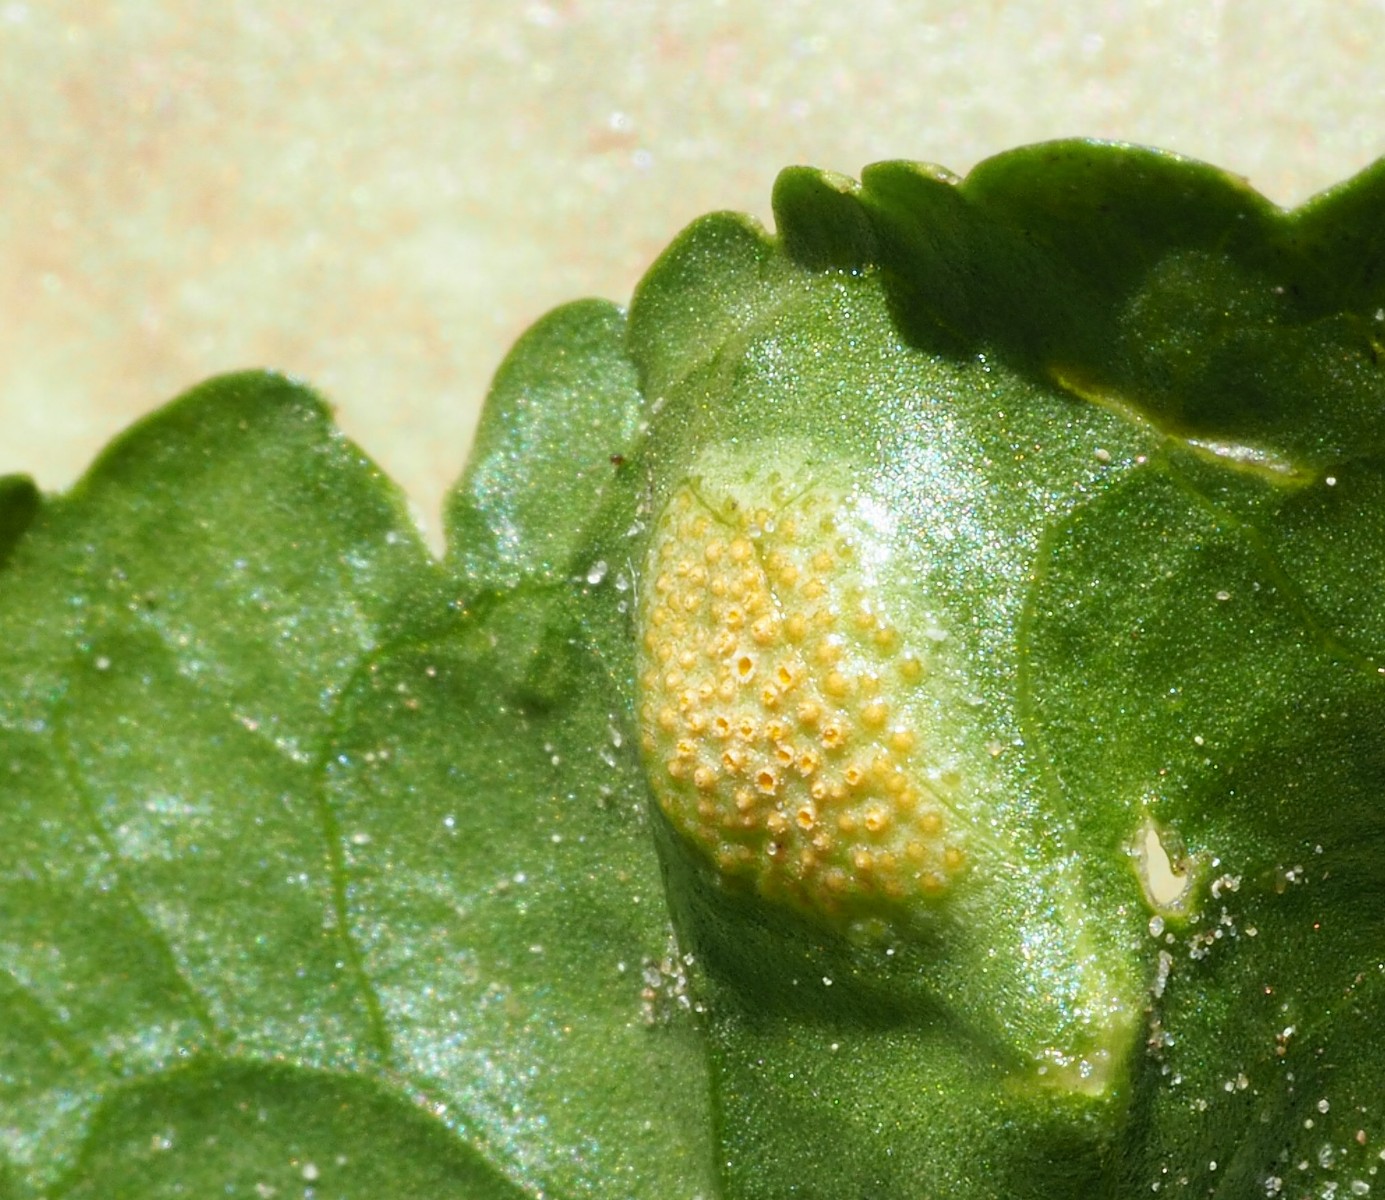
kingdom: Fungi
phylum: Basidiomycota
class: Pucciniomycetes
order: Pucciniales
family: Pucciniaceae
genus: Puccinia
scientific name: Puccinia violae
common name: viol-tvecellerust
